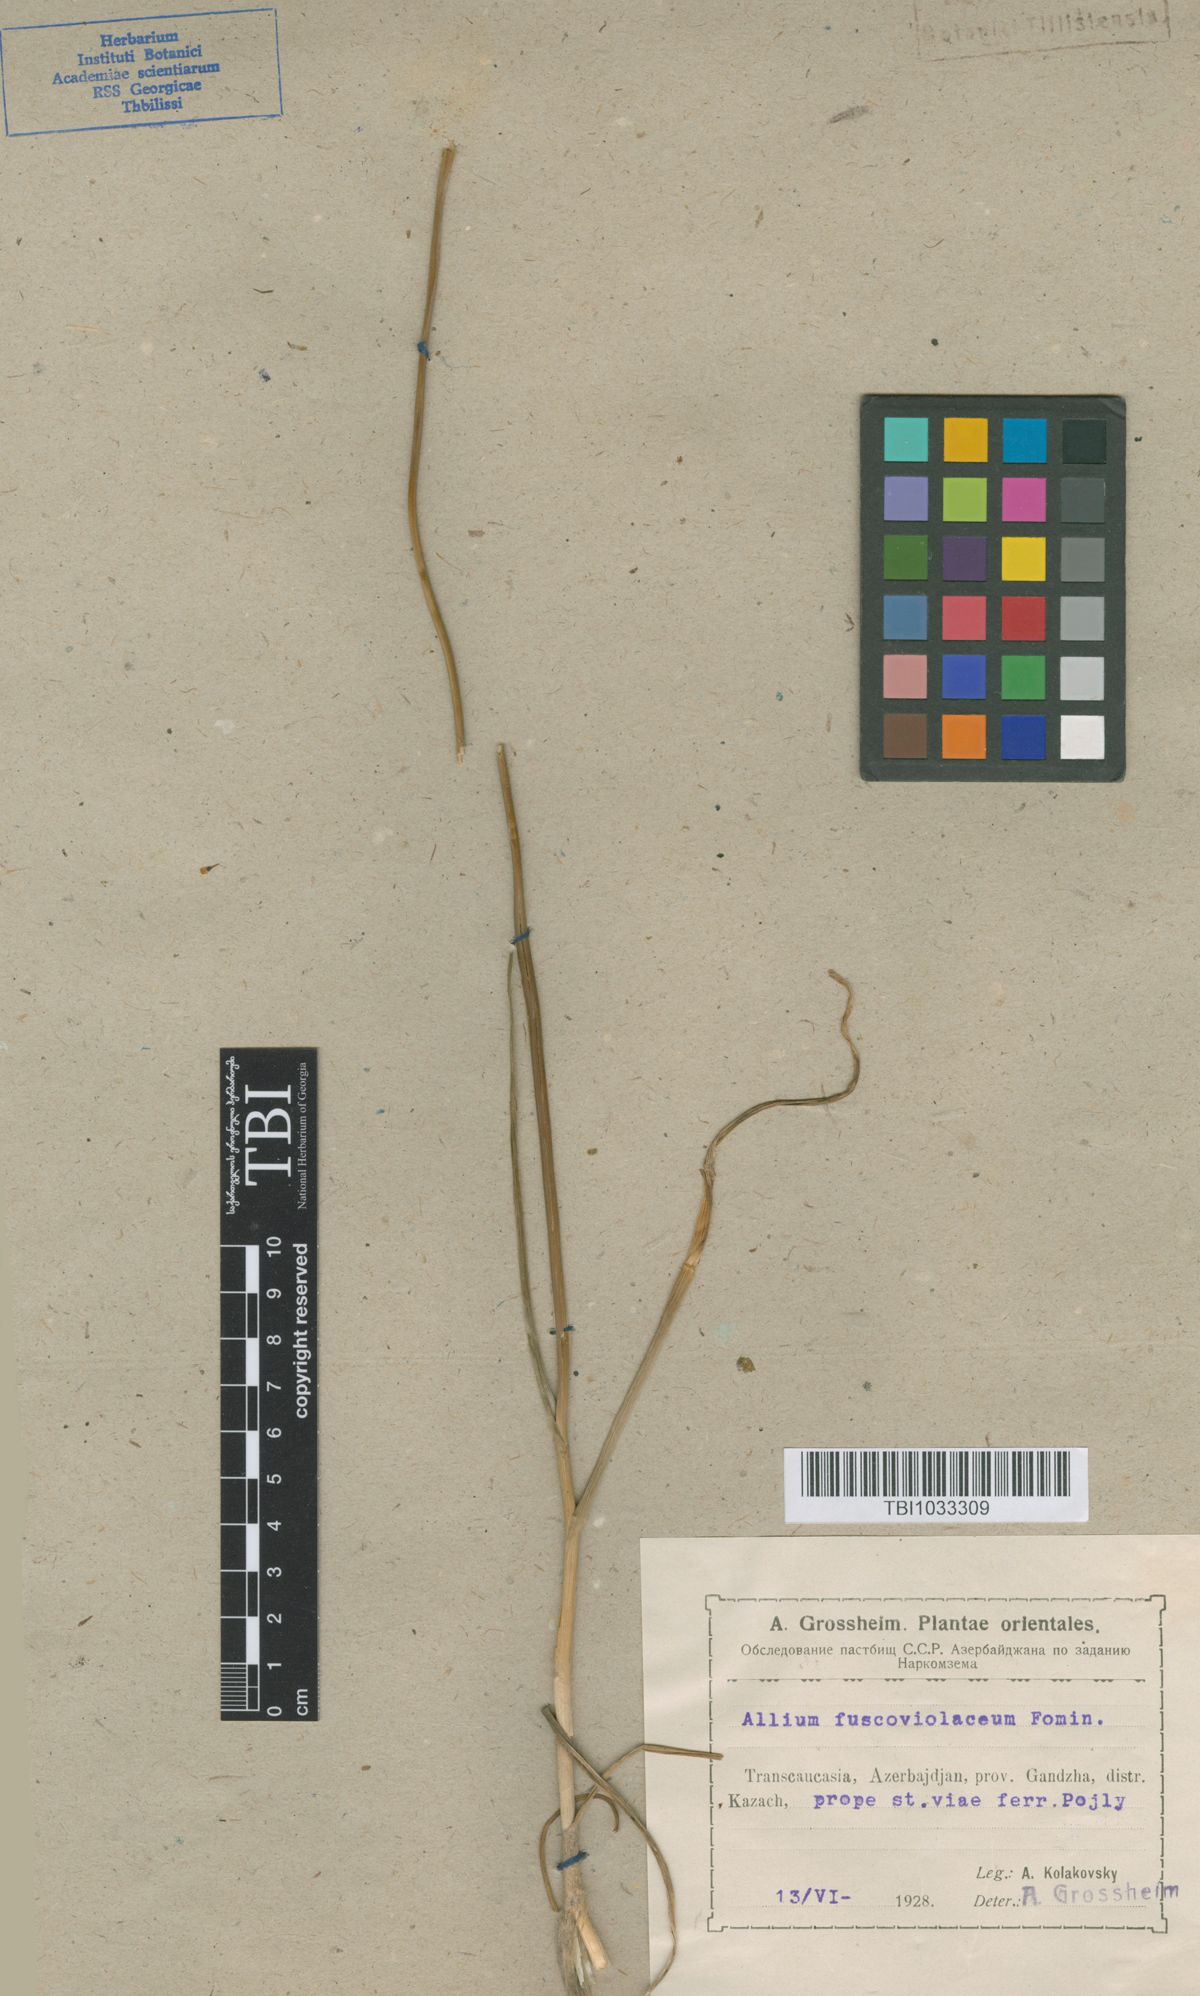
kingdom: Plantae
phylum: Tracheophyta
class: Liliopsida
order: Asparagales
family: Amaryllidaceae
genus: Allium
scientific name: Allium fuscoviolaceum
